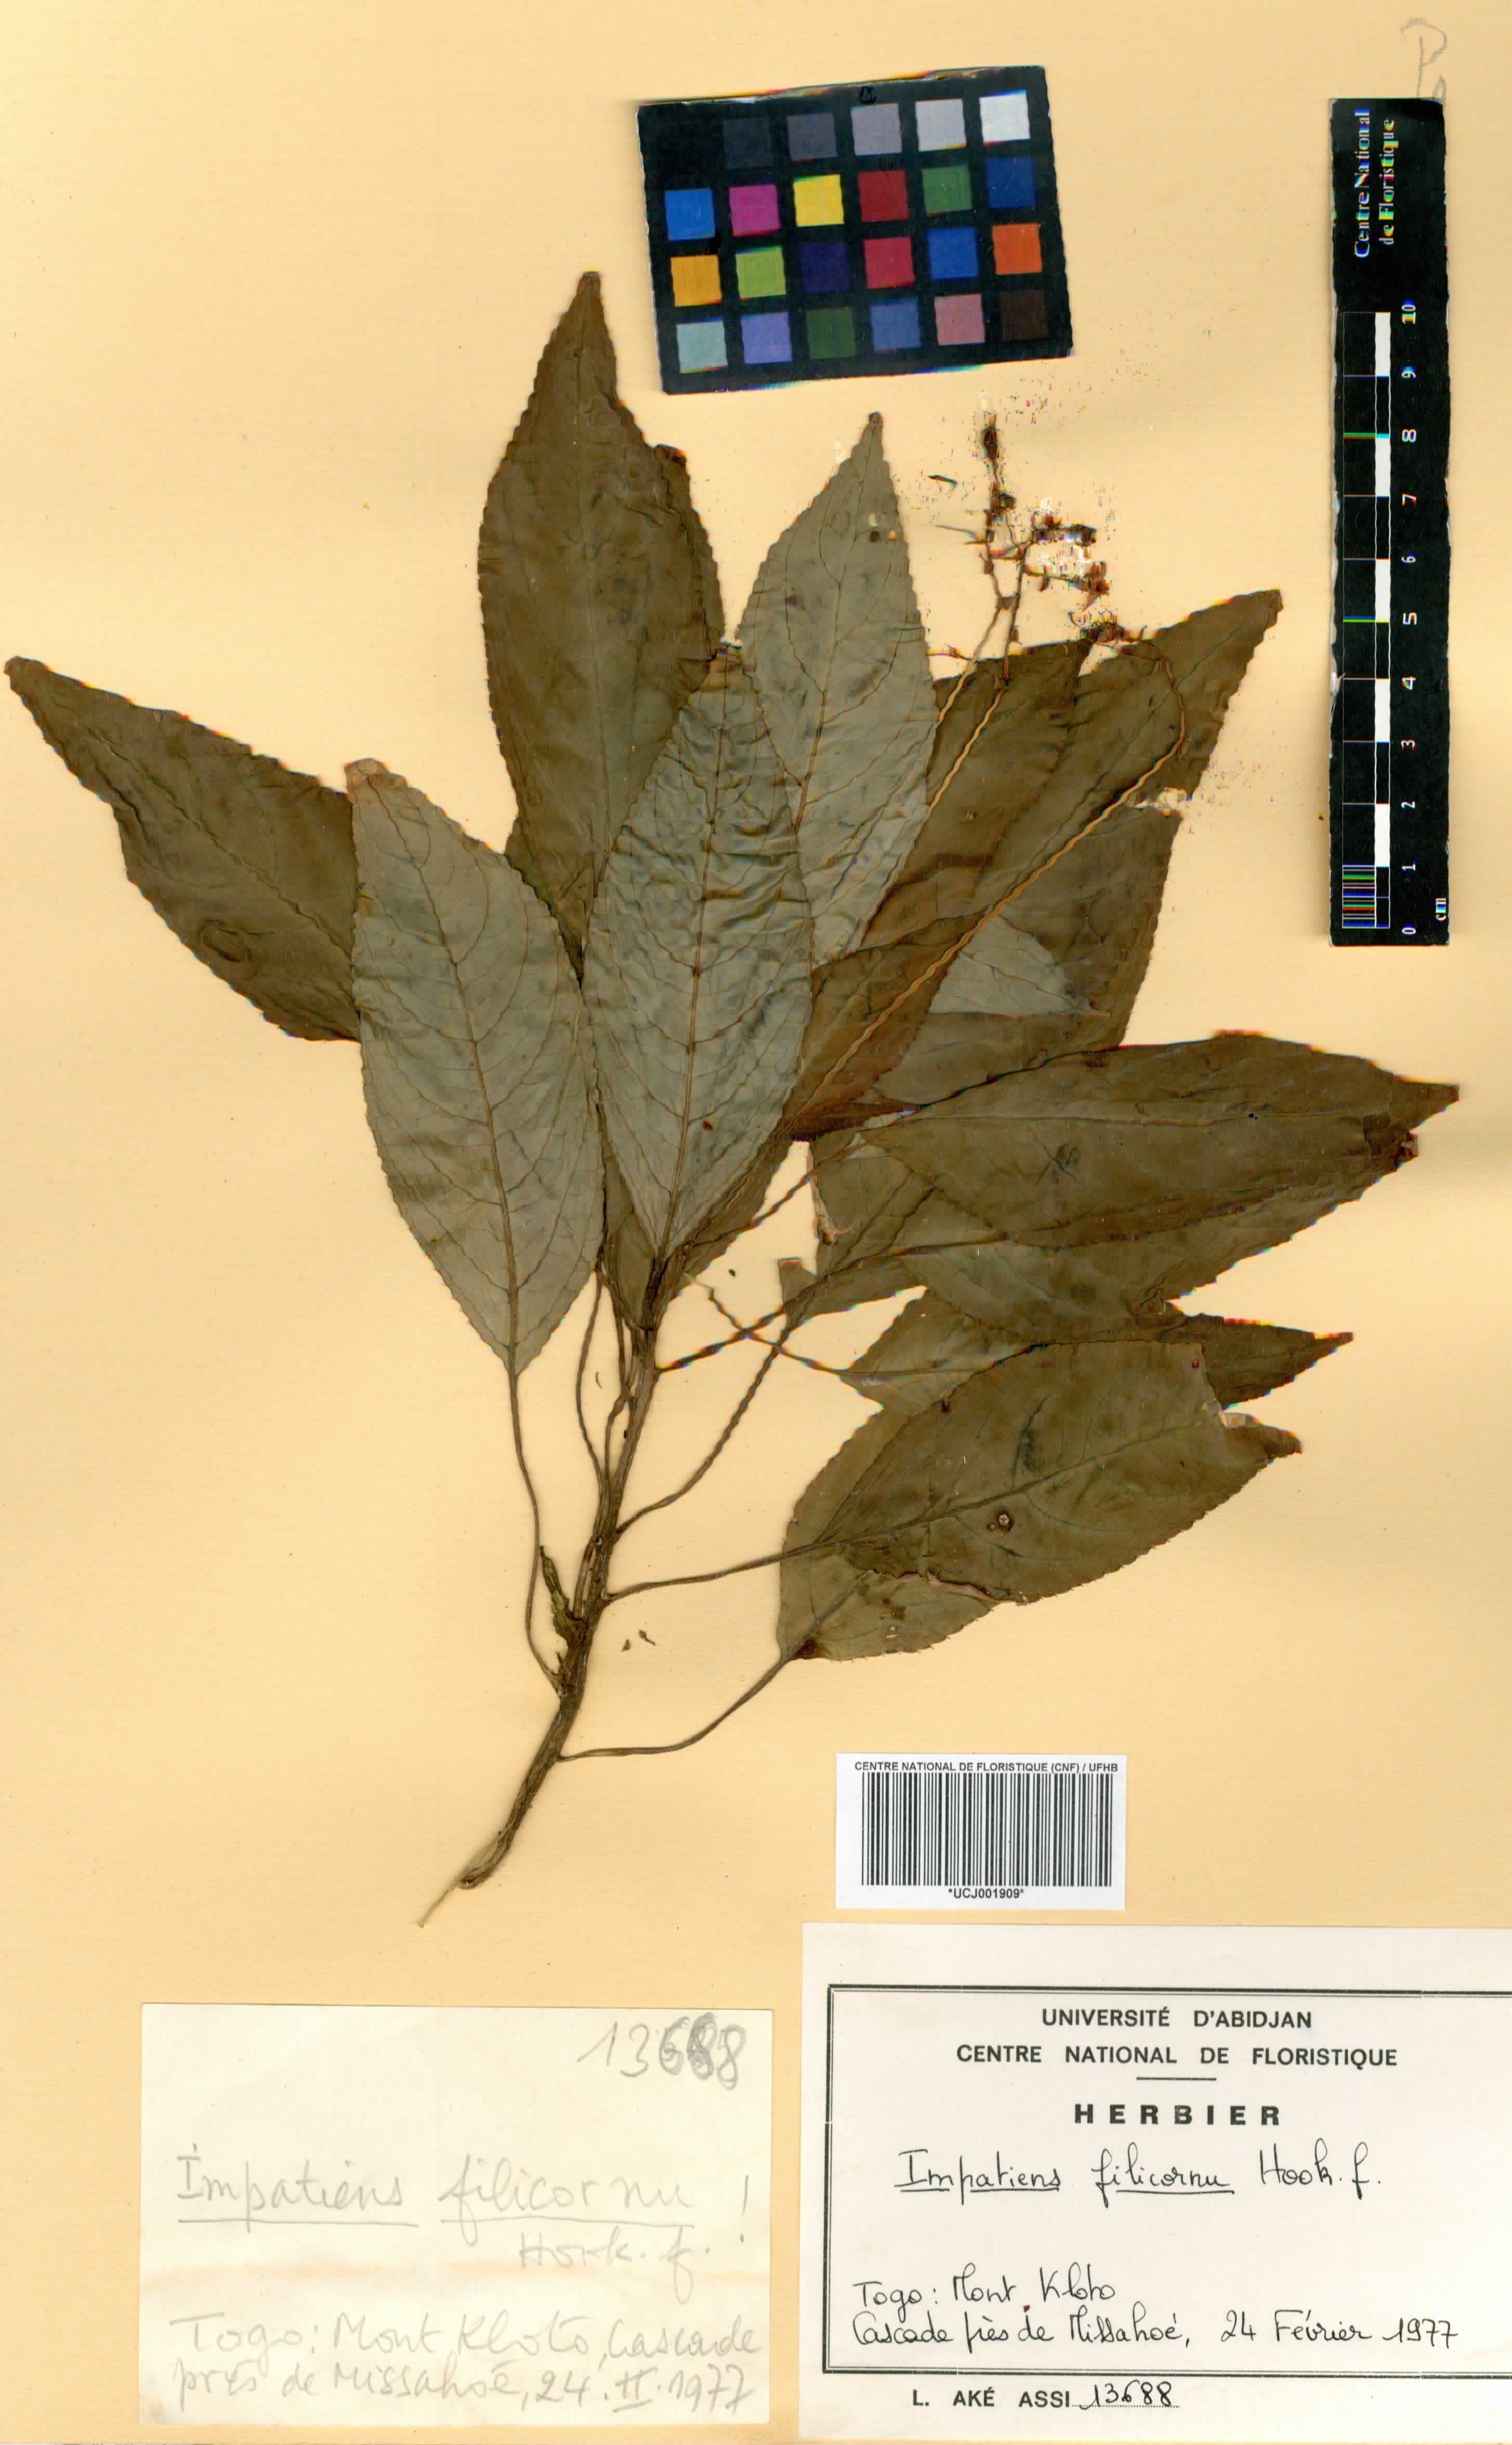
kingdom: Plantae
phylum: Tracheophyta
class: Magnoliopsida
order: Ericales
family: Balsaminaceae
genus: Impatiens
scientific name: Impatiens filicornu
